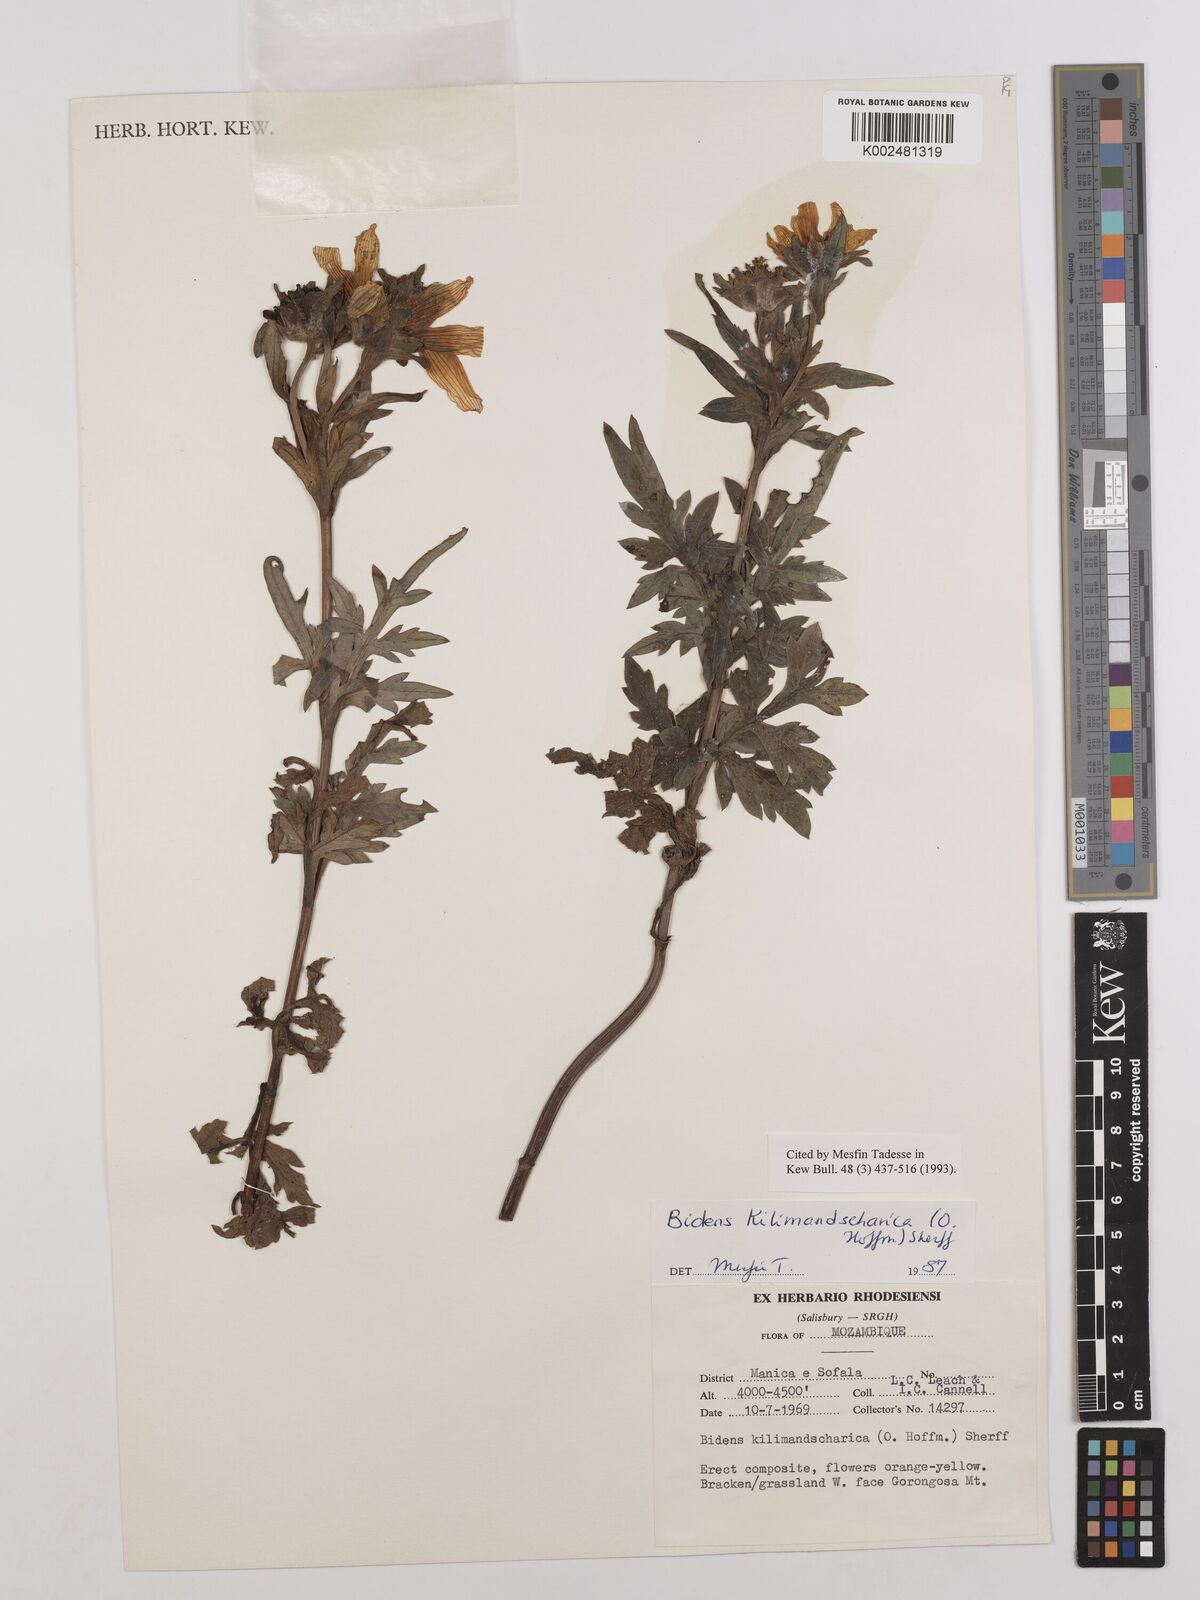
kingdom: Plantae
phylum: Tracheophyta
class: Magnoliopsida
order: Asterales
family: Asteraceae
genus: Bidens
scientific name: Bidens kilimandscharica
